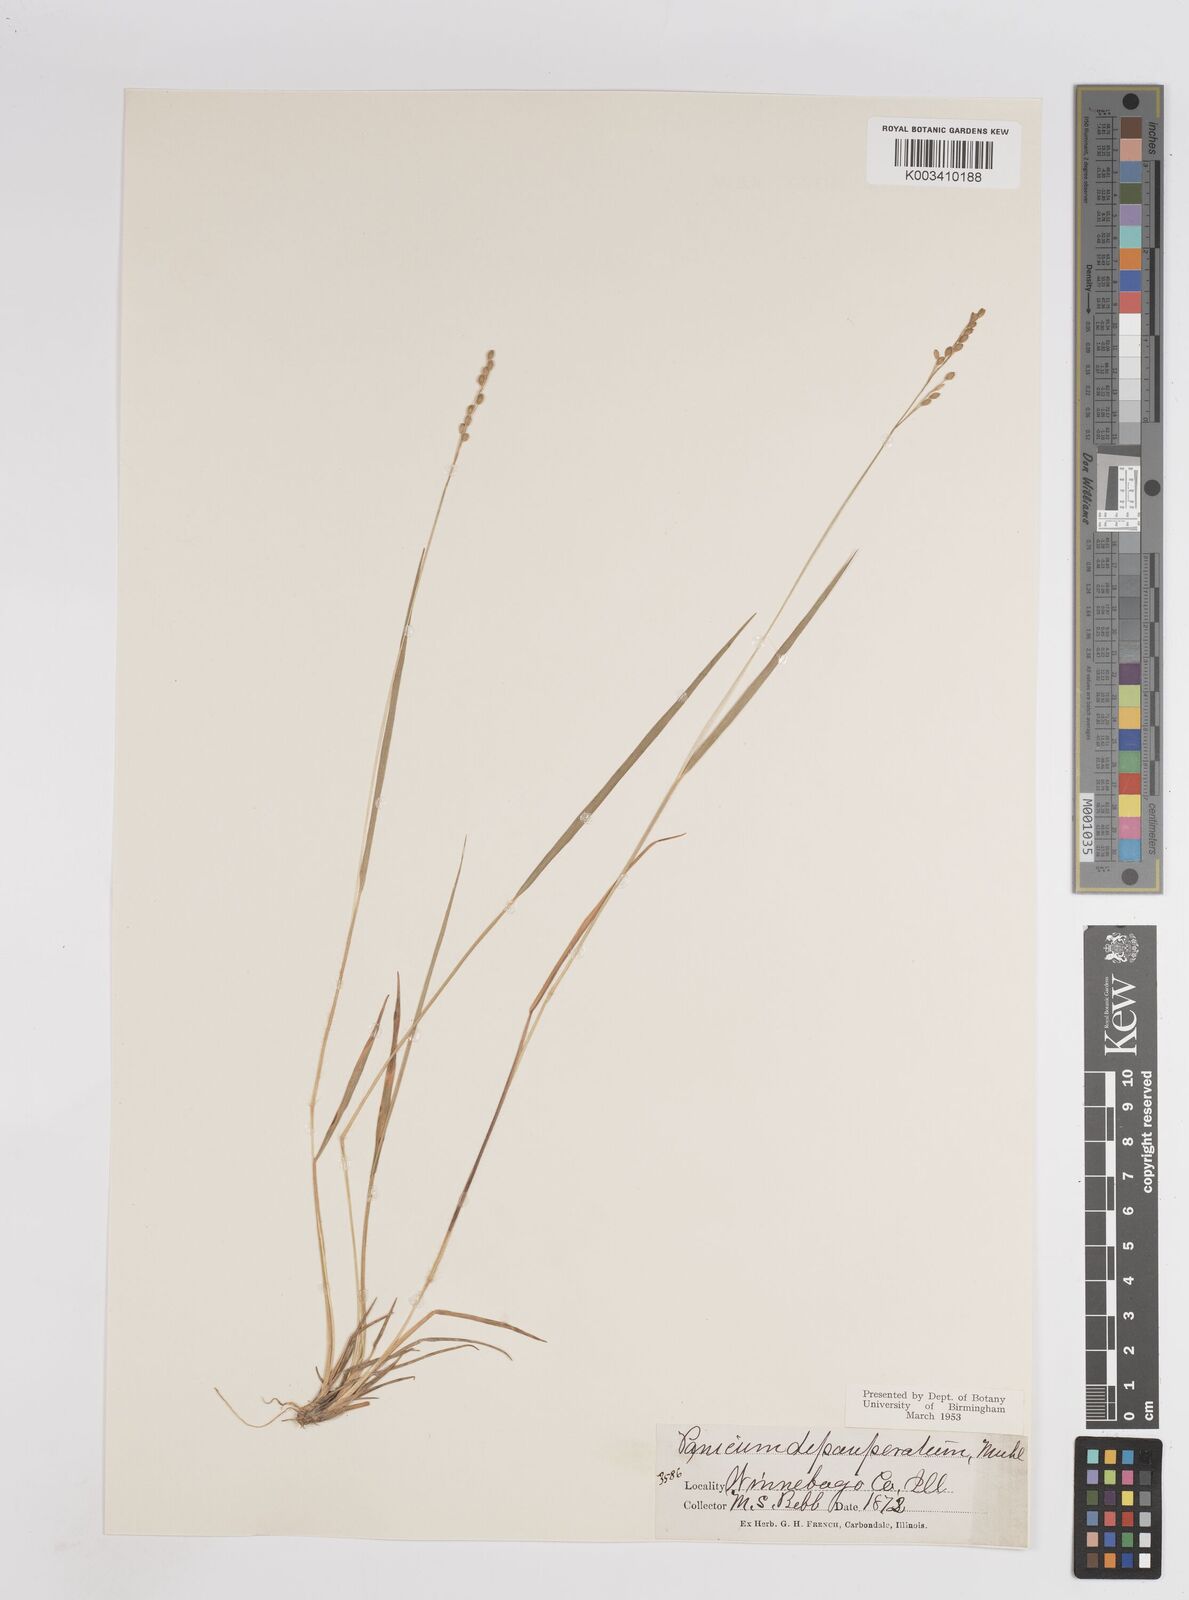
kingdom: Plantae
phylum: Tracheophyta
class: Liliopsida
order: Poales
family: Poaceae
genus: Dichanthelium
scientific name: Dichanthelium depauperatum
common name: Depauperate panicgrass
